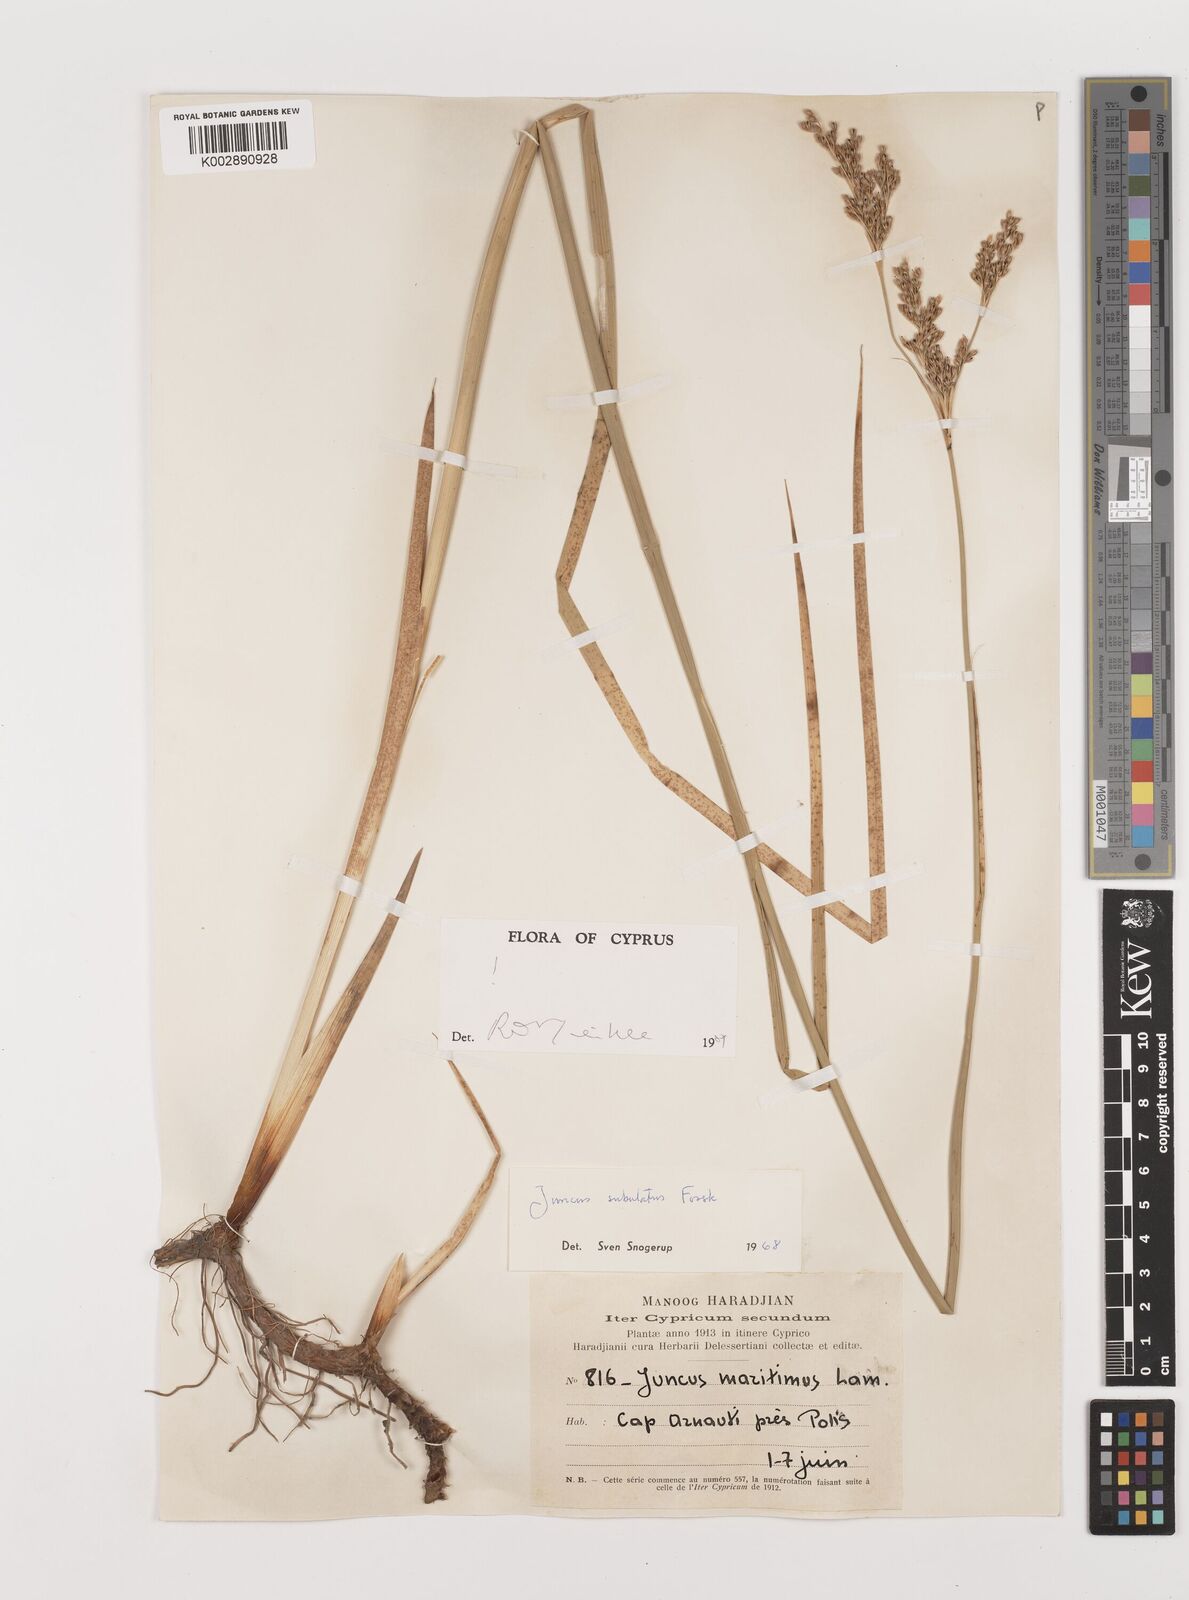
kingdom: Plantae
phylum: Tracheophyta
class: Liliopsida
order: Poales
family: Juncaceae
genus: Juncus
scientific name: Juncus subulatus
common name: Somerset rush
